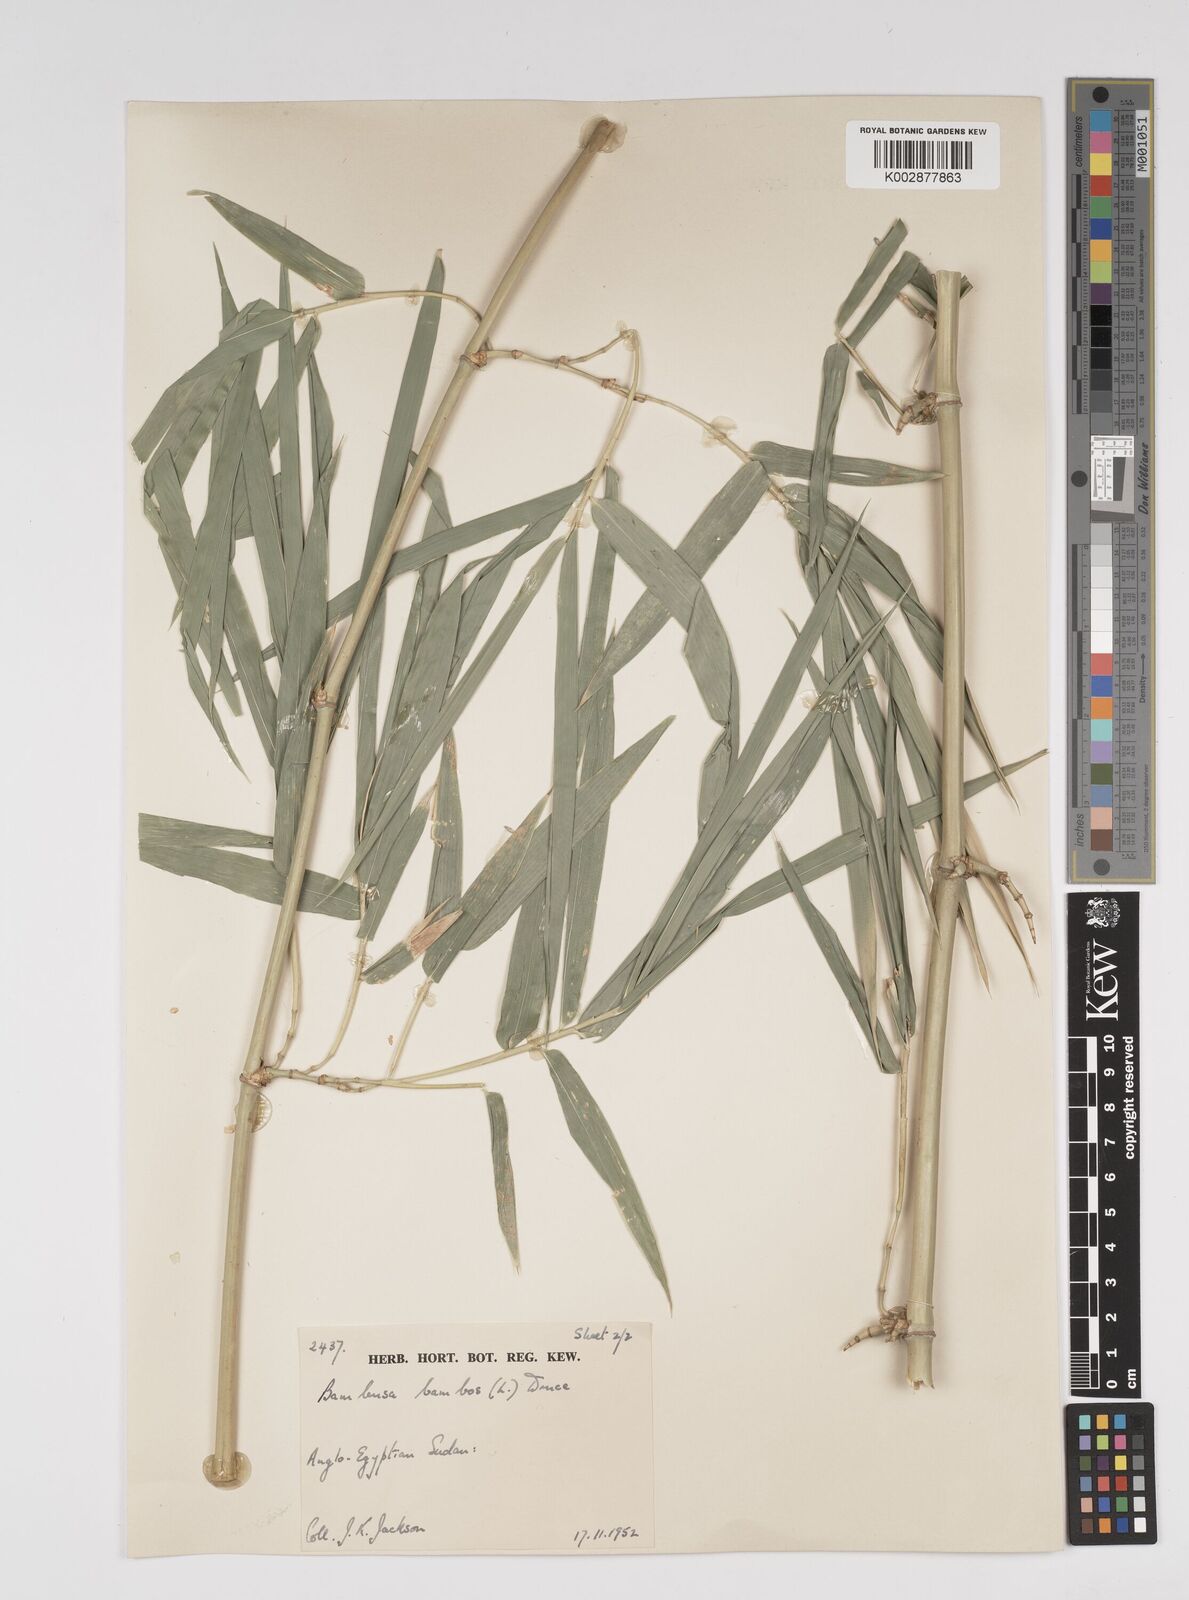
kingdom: Plantae
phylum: Tracheophyta
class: Liliopsida
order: Poales
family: Poaceae
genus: Bambusa
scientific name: Bambusa vulgaris
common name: Common bamboo
